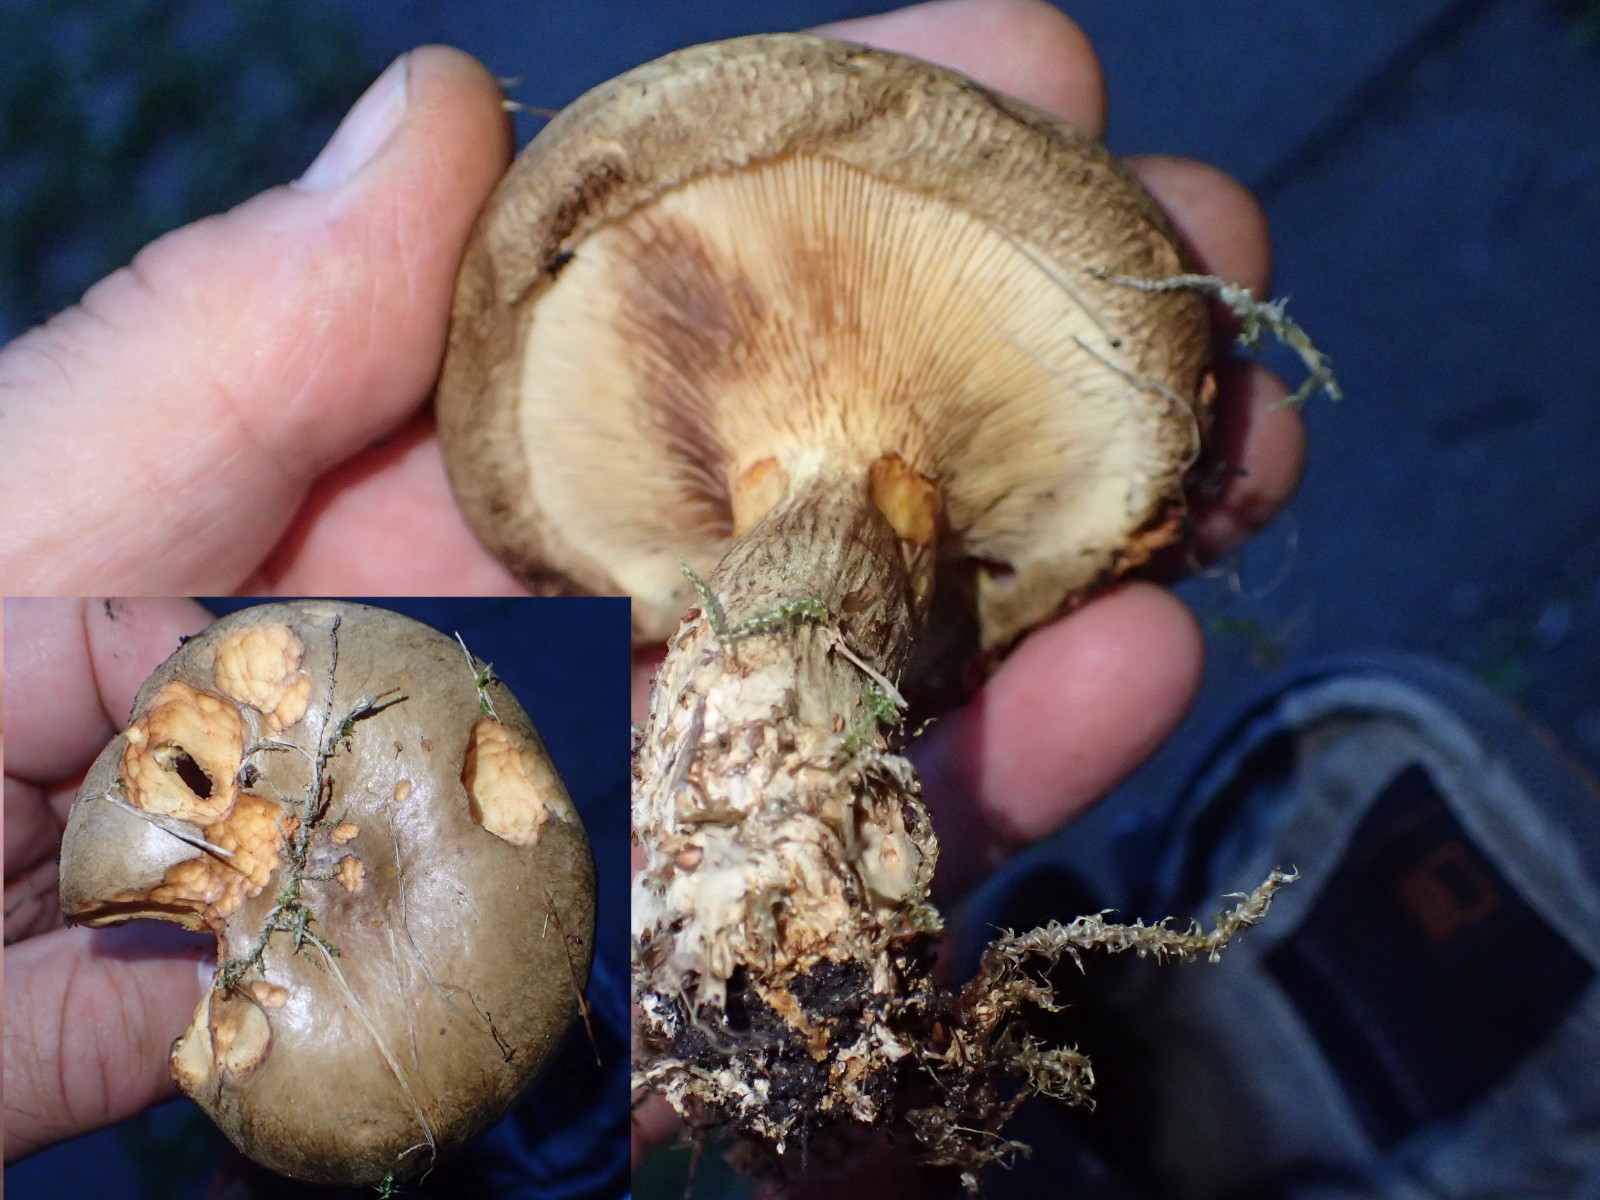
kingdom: Fungi
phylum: Basidiomycota
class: Agaricomycetes
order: Boletales
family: Paxillaceae
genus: Paxillus
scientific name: Paxillus involutus
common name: almindelig netbladhat
